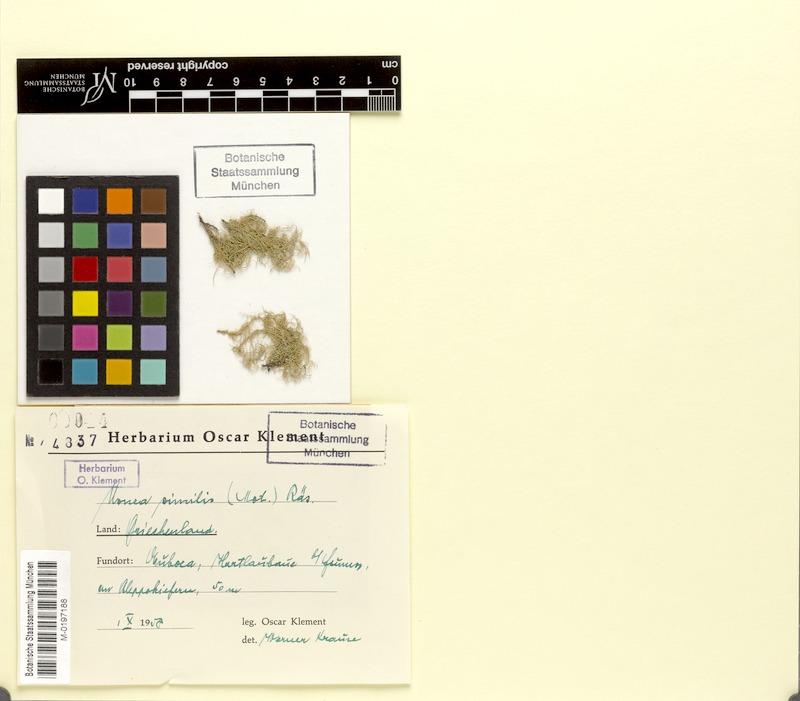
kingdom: Fungi
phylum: Ascomycota
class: Lecanoromycetes
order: Lecanorales
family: Parmeliaceae
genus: Usnea
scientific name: Usnea subfloridana
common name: Boreal beard lichen
